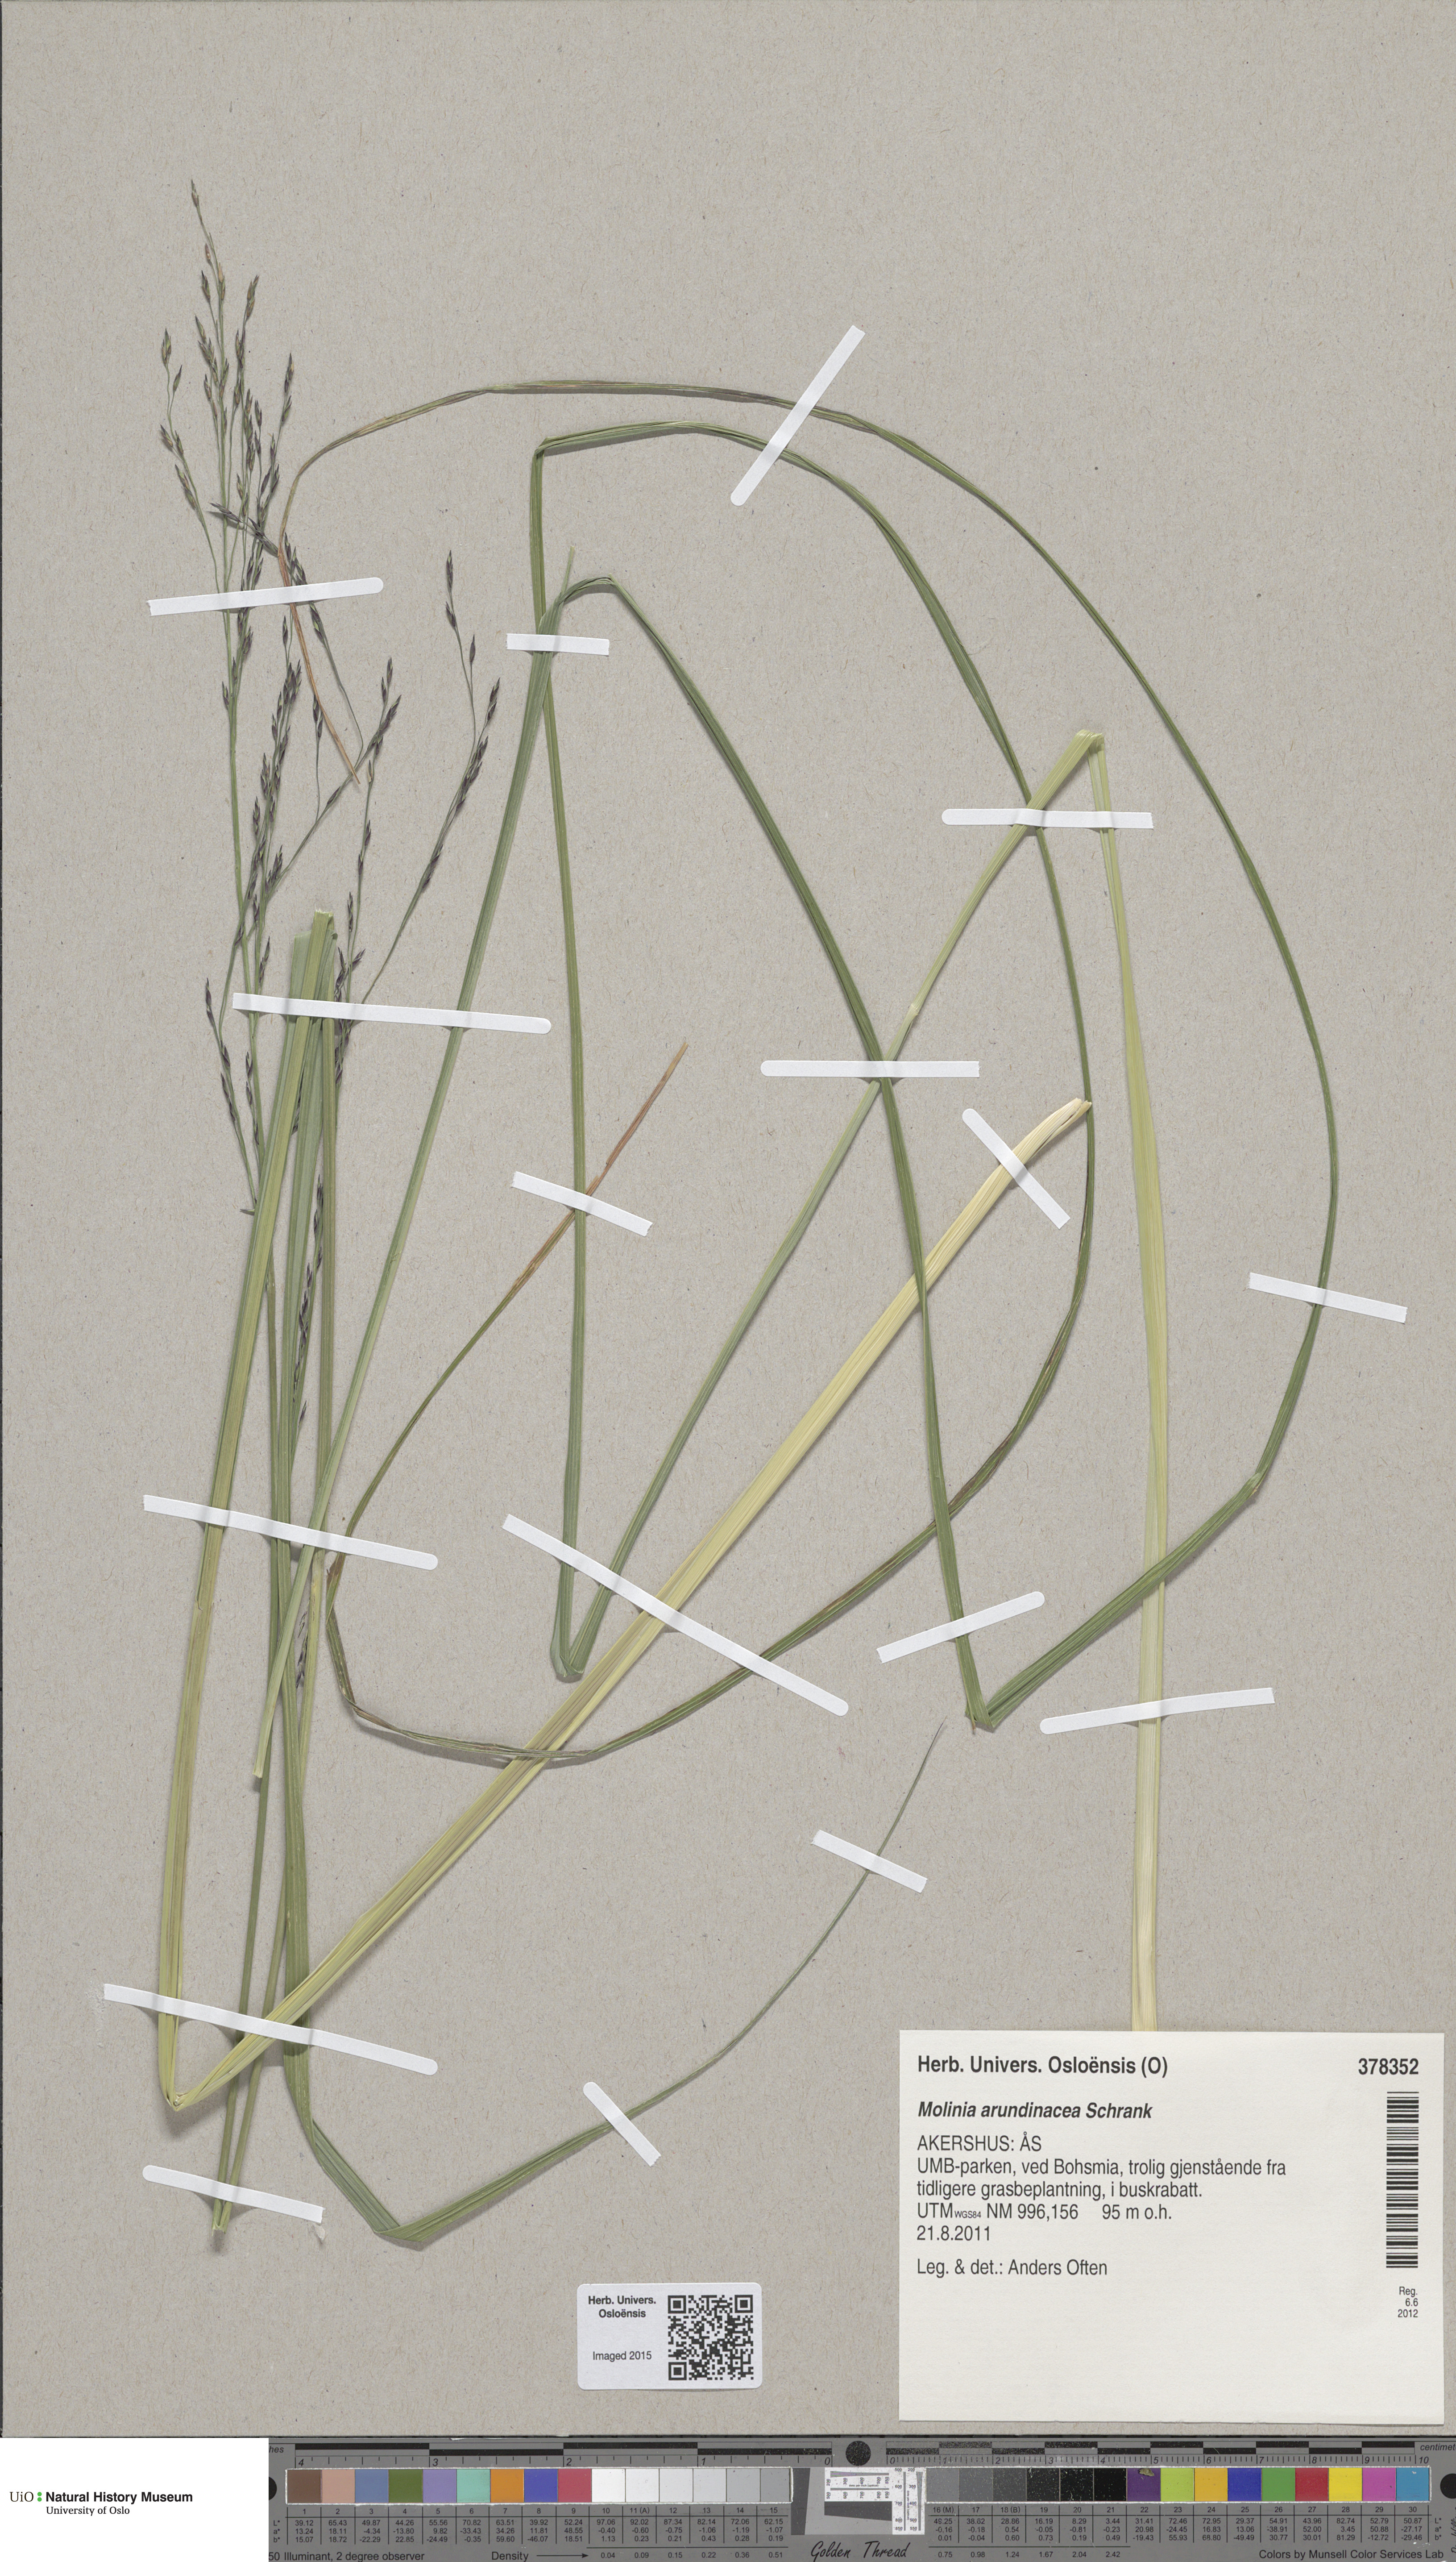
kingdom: Plantae
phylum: Tracheophyta
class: Liliopsida
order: Poales
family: Poaceae
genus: Molinia
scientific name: Molinia arundinacea
